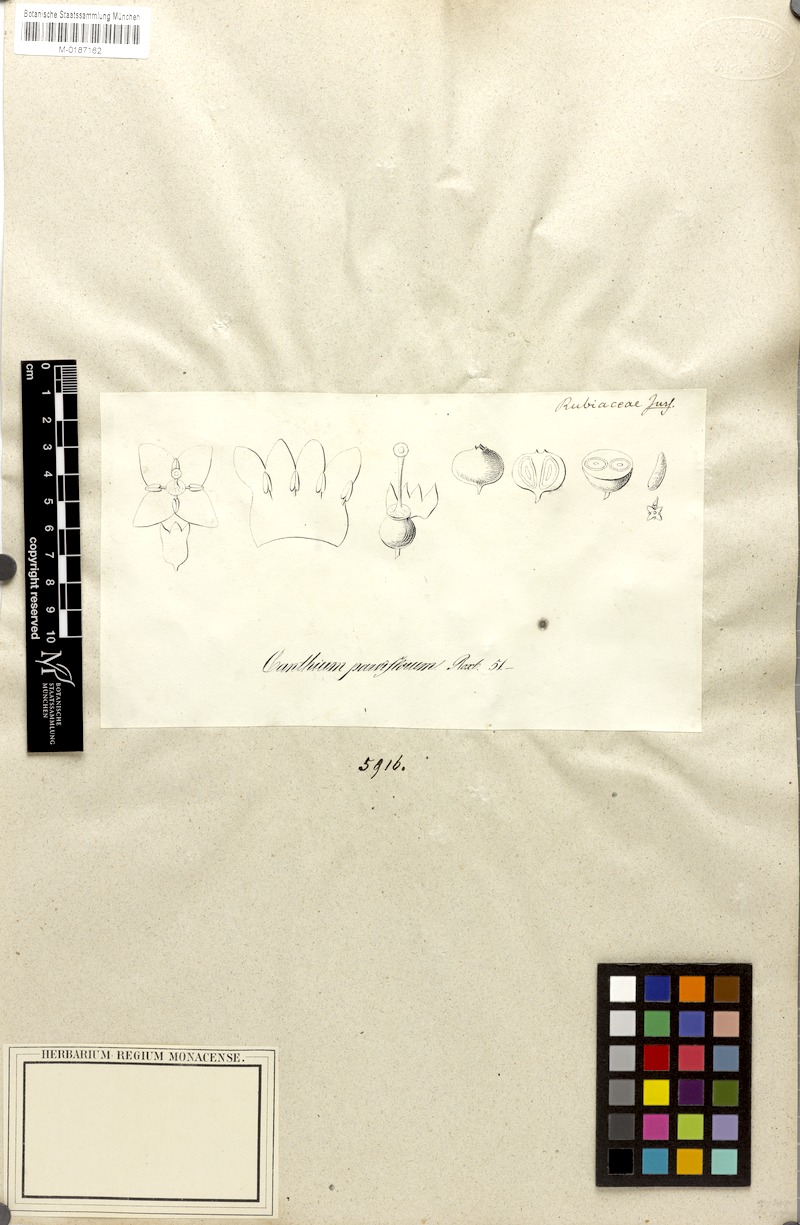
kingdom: Plantae
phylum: Tracheophyta
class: Magnoliopsida
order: Gentianales
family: Rubiaceae
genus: Canthium
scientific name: Canthium coromandelicum
